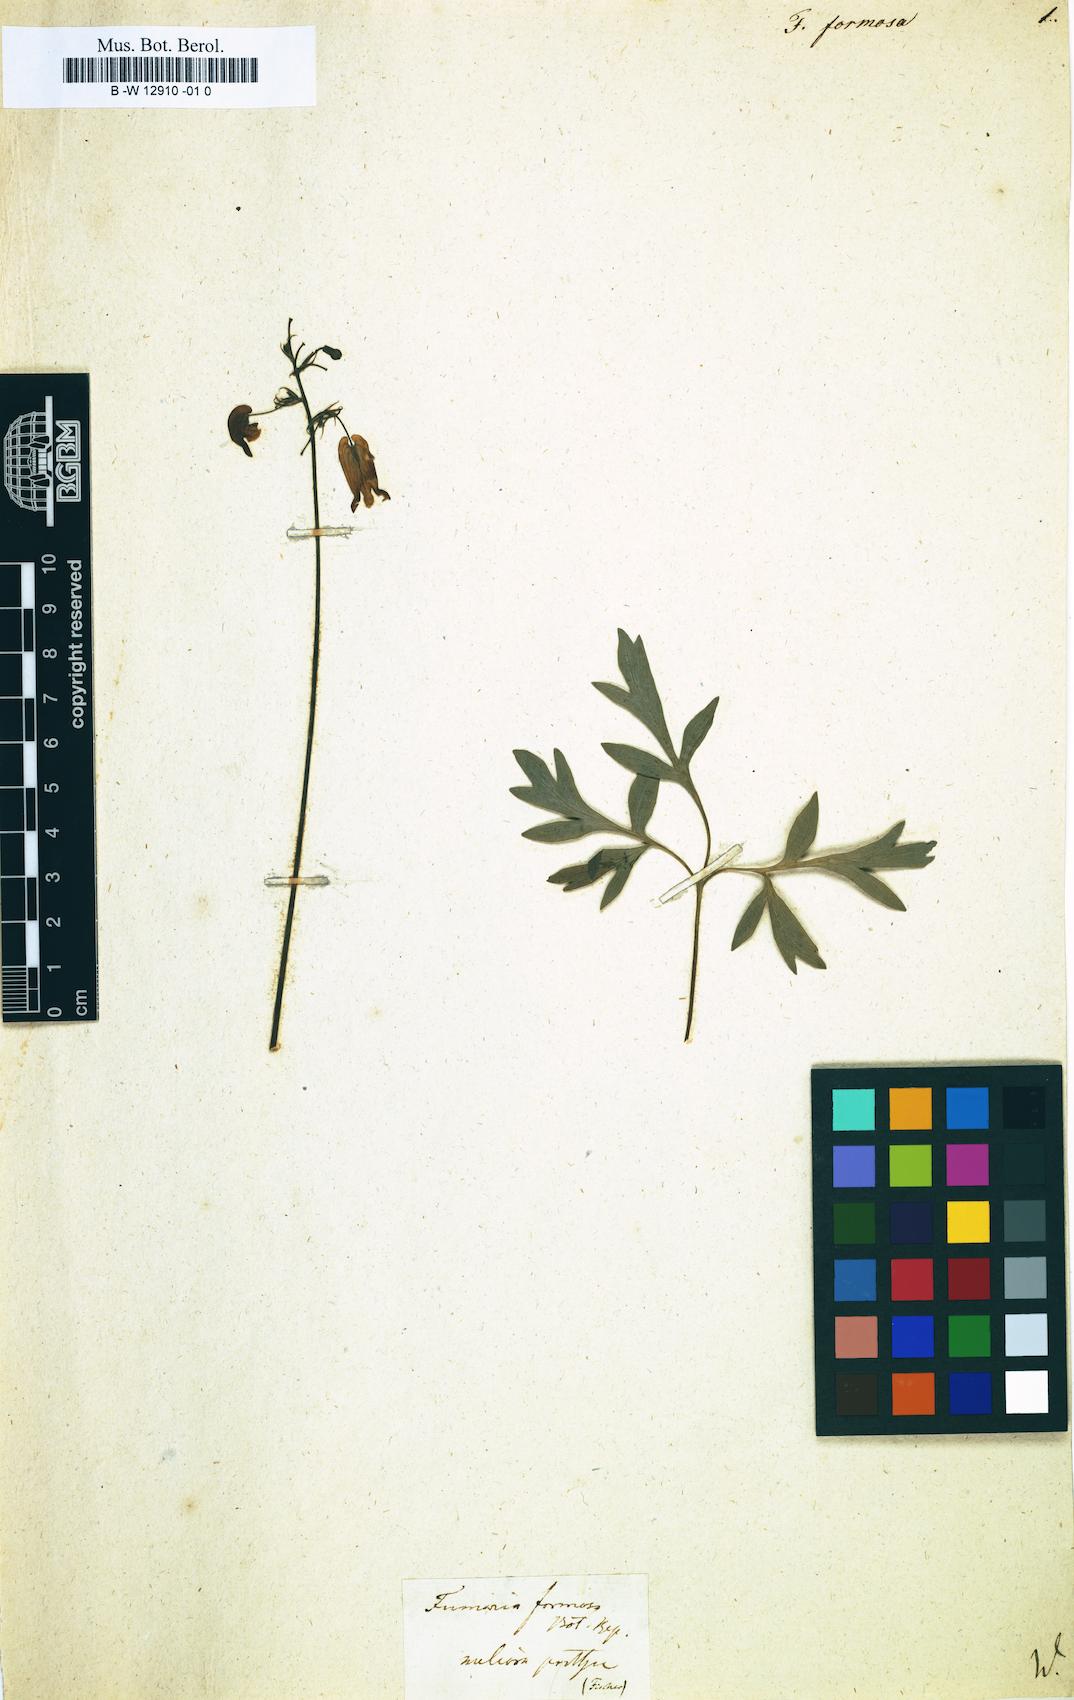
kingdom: Plantae
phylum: Tracheophyta
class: Magnoliopsida
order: Ranunculales
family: Papaveraceae
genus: Dicentra
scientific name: Dicentra formosa
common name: Bleeding-heart
